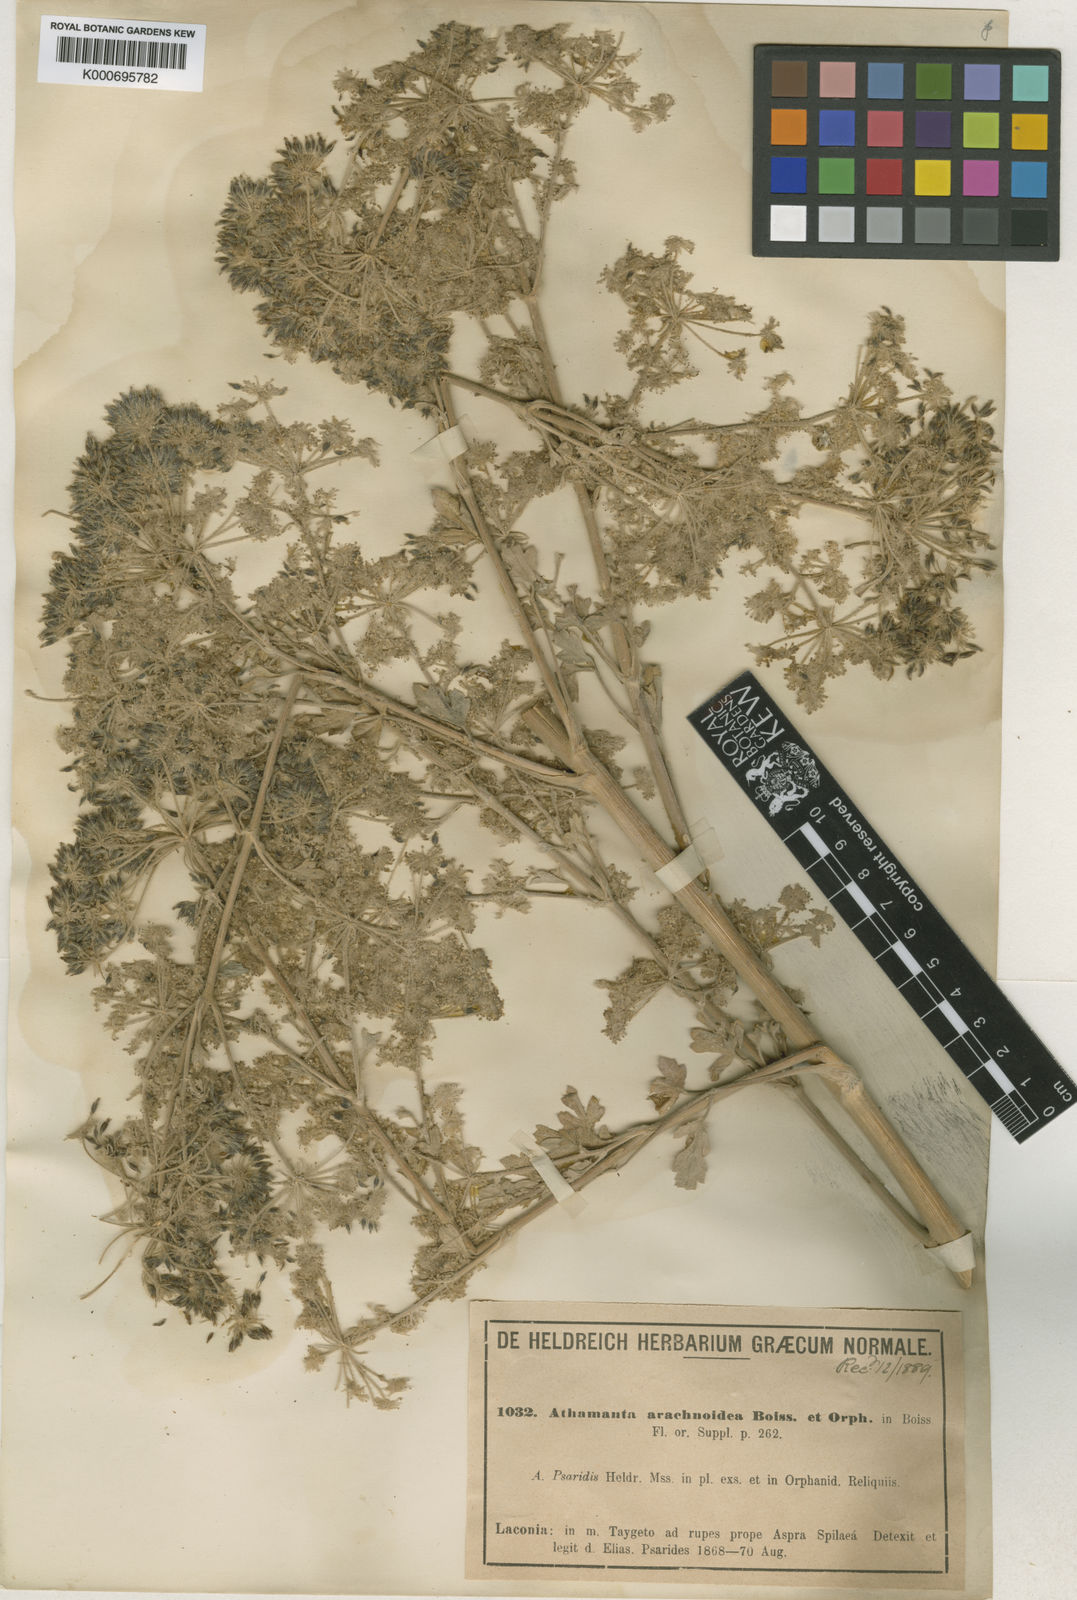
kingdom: Plantae
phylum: Tracheophyta
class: Magnoliopsida
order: Apiales
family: Apiaceae
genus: Bubon
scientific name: Bubon macedonicum
